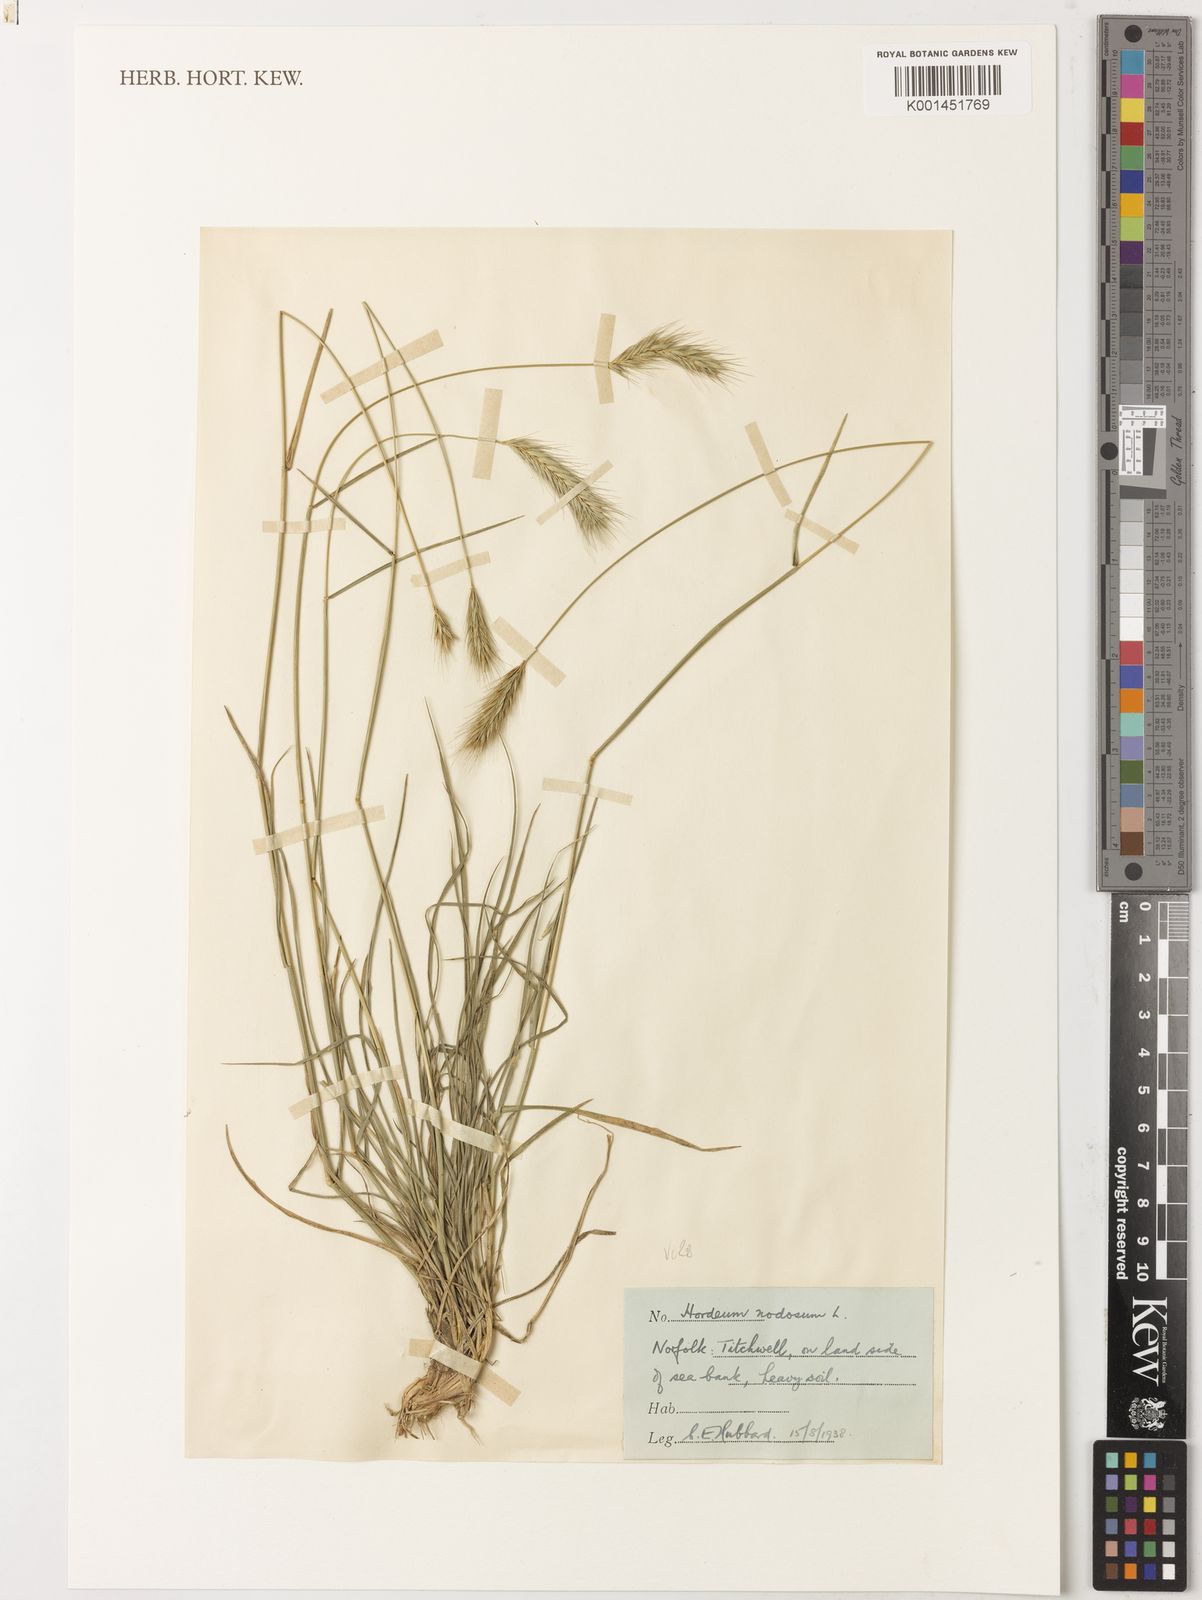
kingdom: Plantae
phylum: Tracheophyta
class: Liliopsida
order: Poales
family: Poaceae
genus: Hordeum
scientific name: Hordeum secalinum
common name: Meadow barley
